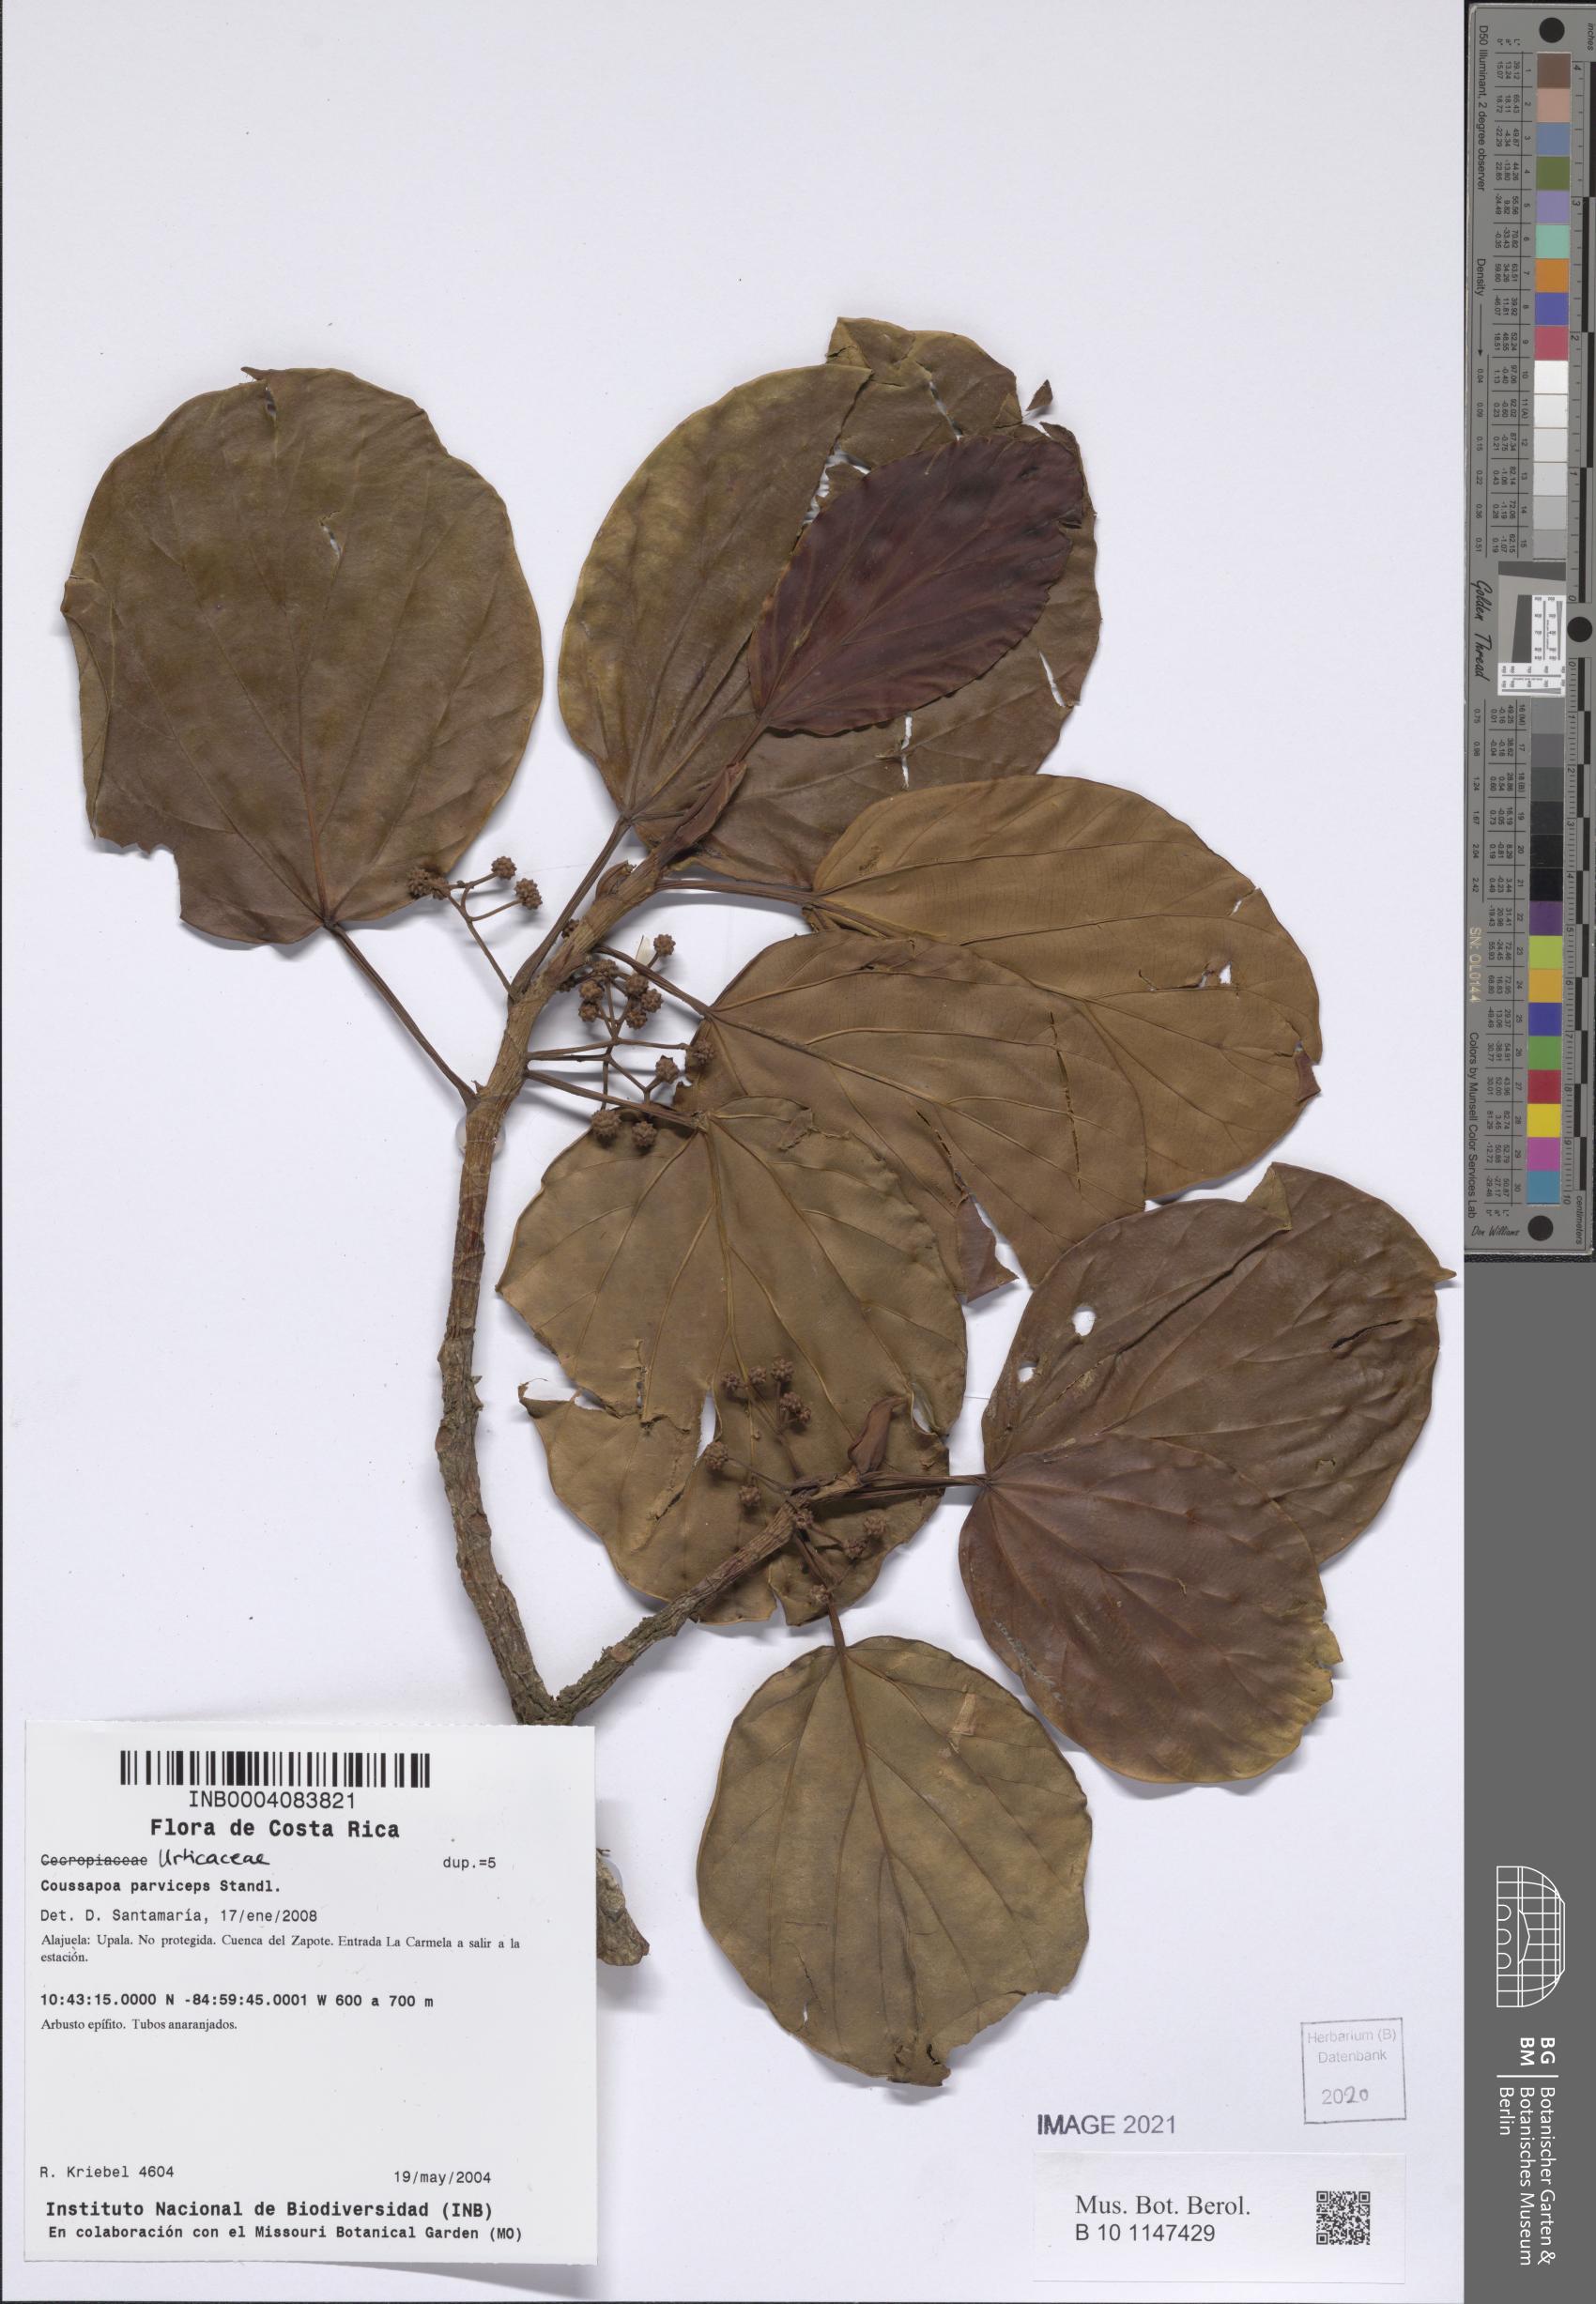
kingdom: Plantae
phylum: Tracheophyta
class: Magnoliopsida
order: Rosales
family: Urticaceae
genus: Coussapoa
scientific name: Coussapoa parviceps
